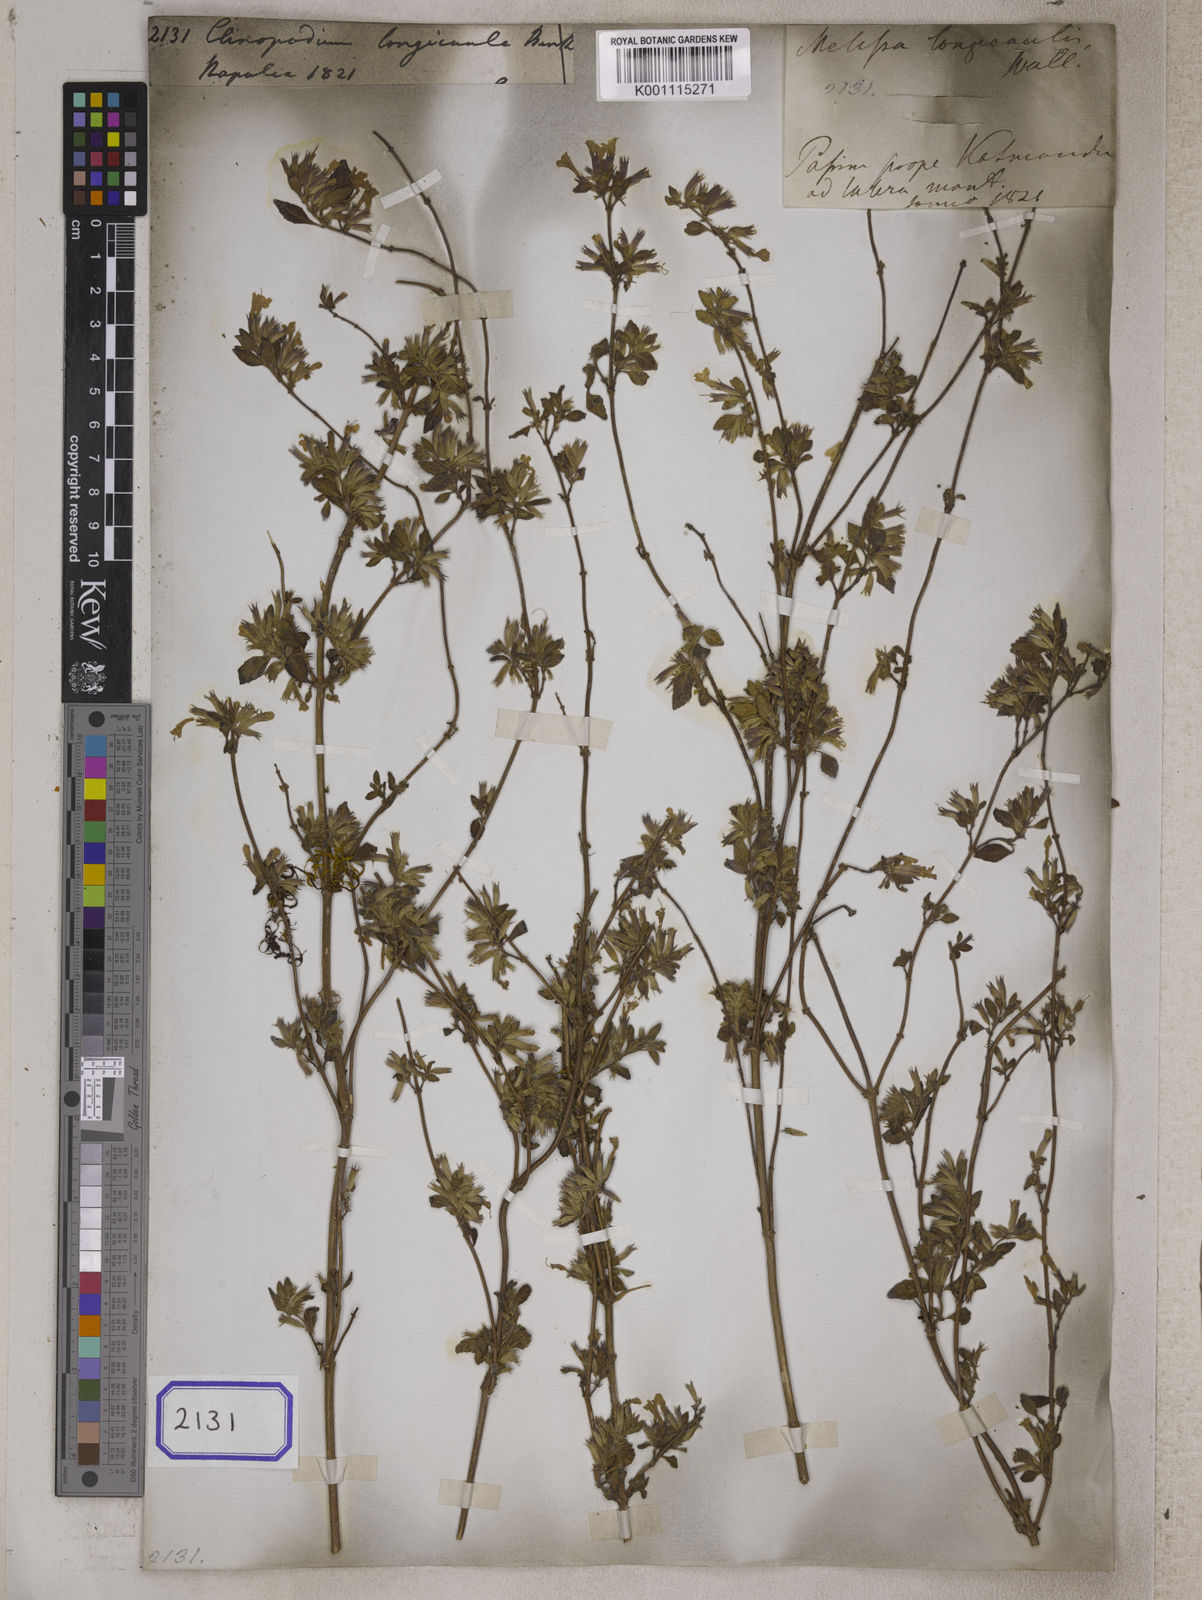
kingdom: Plantae
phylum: Tracheophyta
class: Magnoliopsida
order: Lamiales
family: Lamiaceae
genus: Clinopodium
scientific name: Clinopodium piperitum
